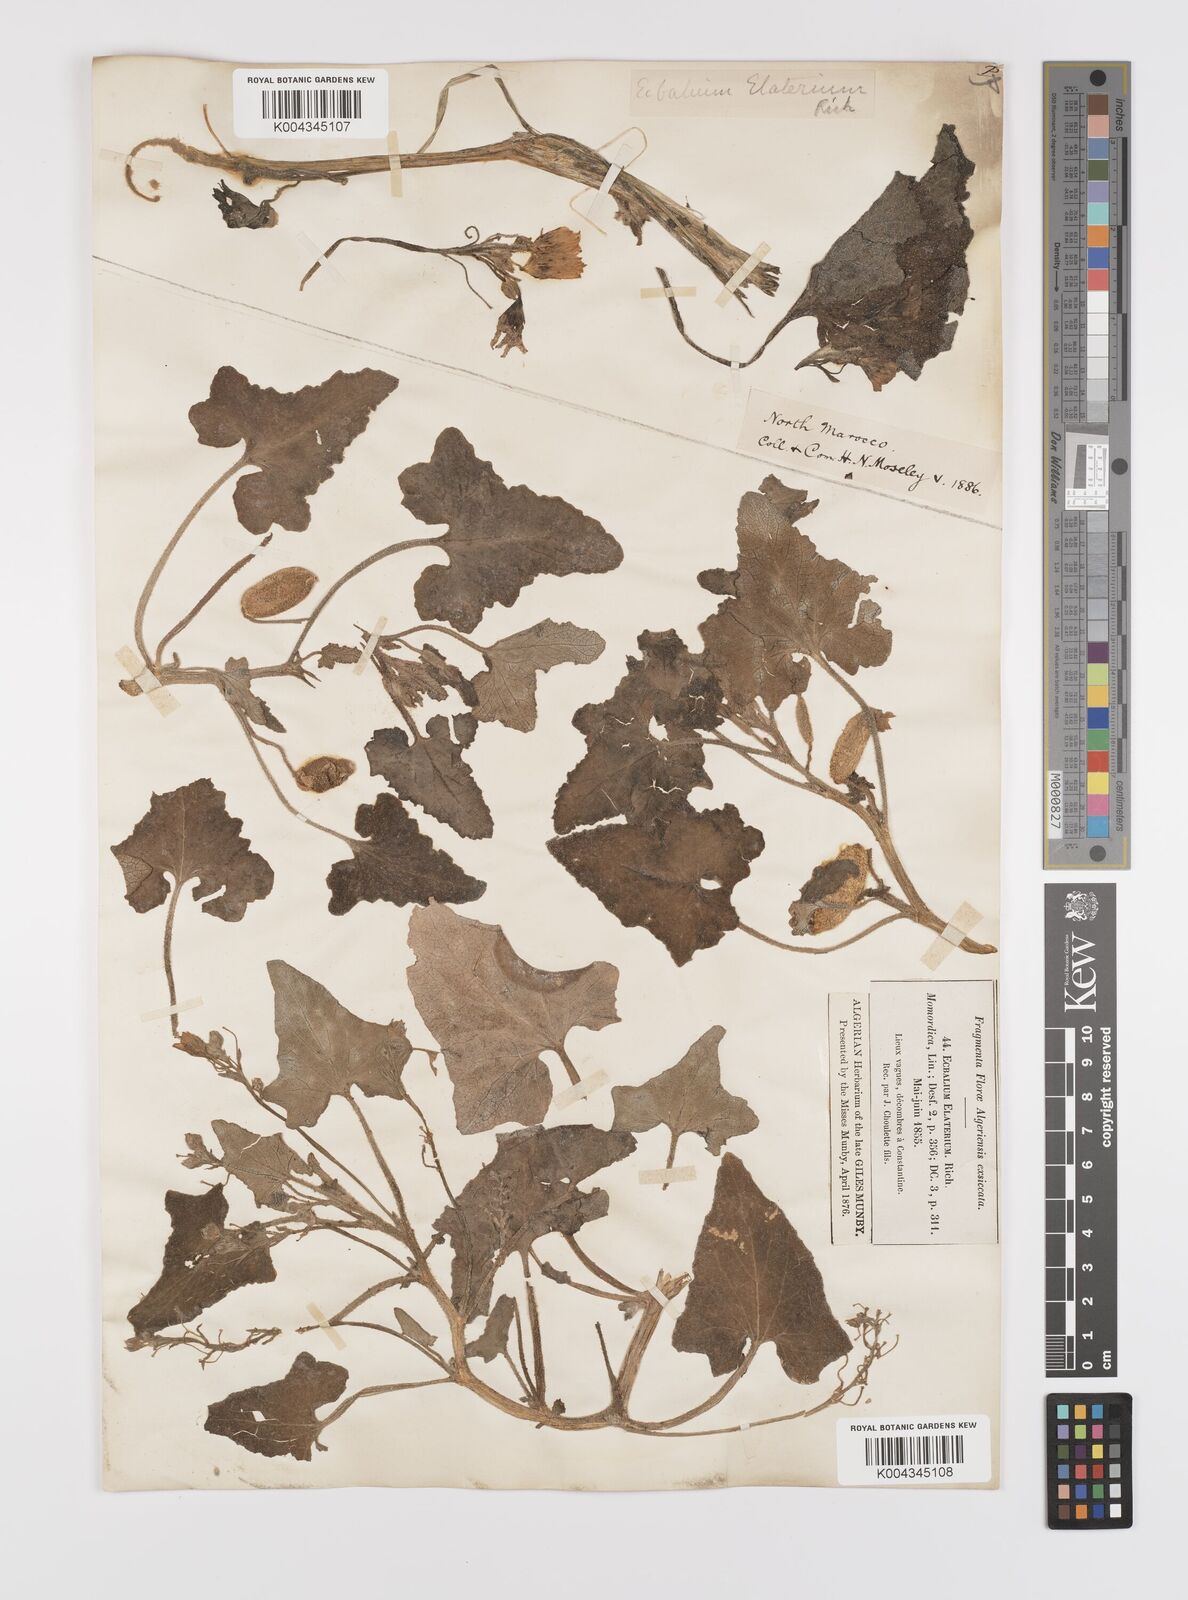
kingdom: Plantae
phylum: Tracheophyta
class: Magnoliopsida
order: Cucurbitales
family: Cucurbitaceae
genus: Ecballium
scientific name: Ecballium elaterium
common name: Squirting cucumber
